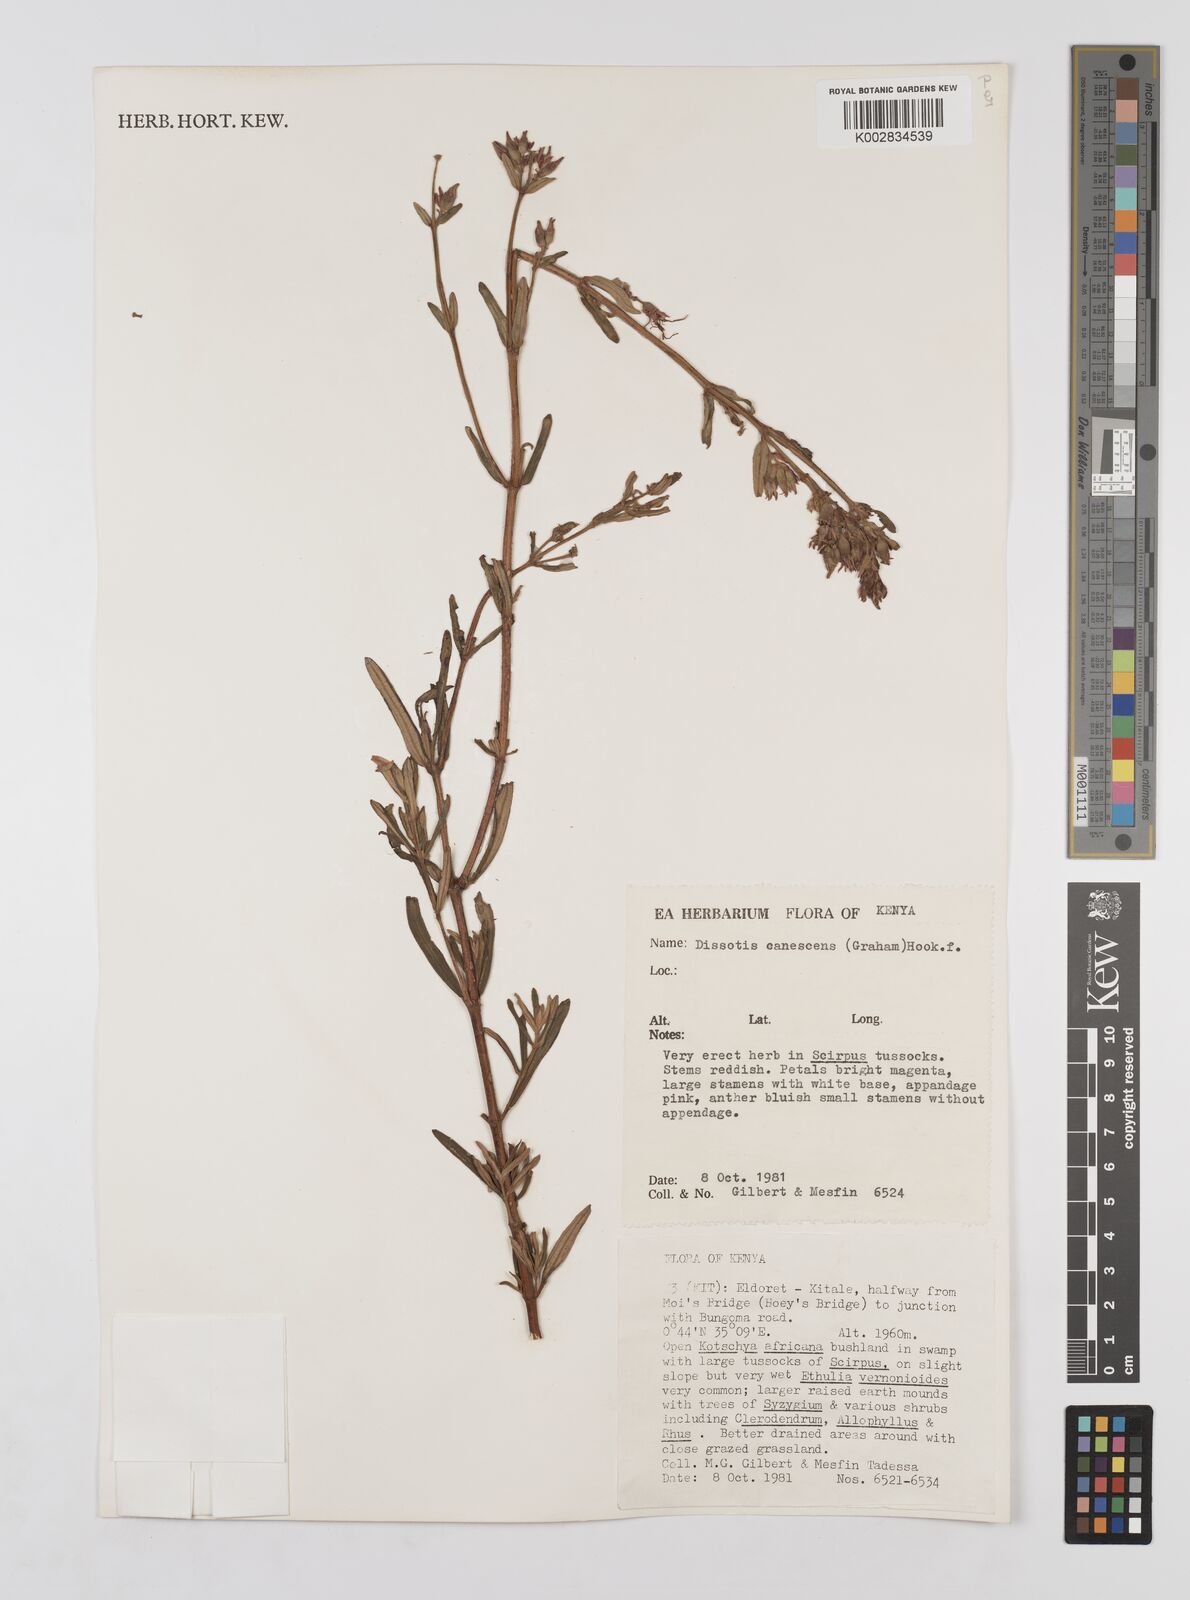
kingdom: Plantae
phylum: Tracheophyta
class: Magnoliopsida
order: Myrtales
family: Melastomataceae
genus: Argyrella
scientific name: Argyrella canescens
